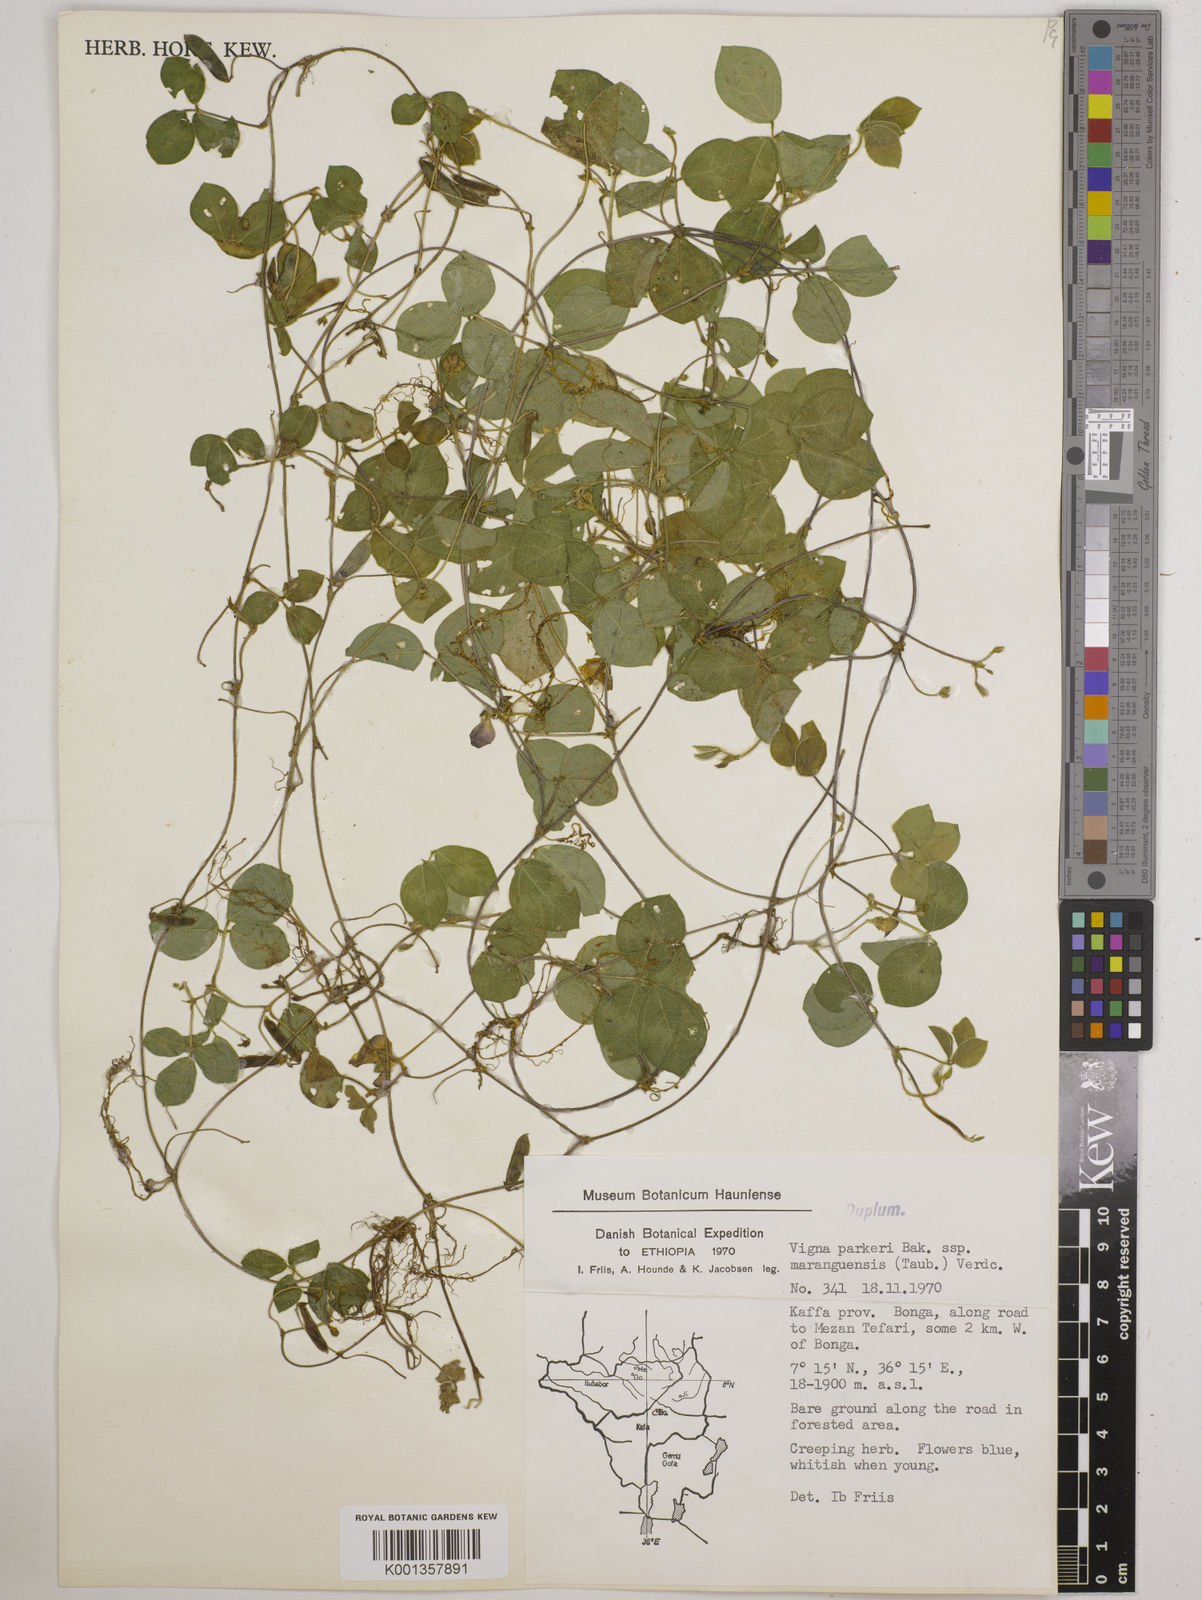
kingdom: Plantae
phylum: Tracheophyta
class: Magnoliopsida
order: Fabales
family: Fabaceae
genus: Vigna
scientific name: Vigna
